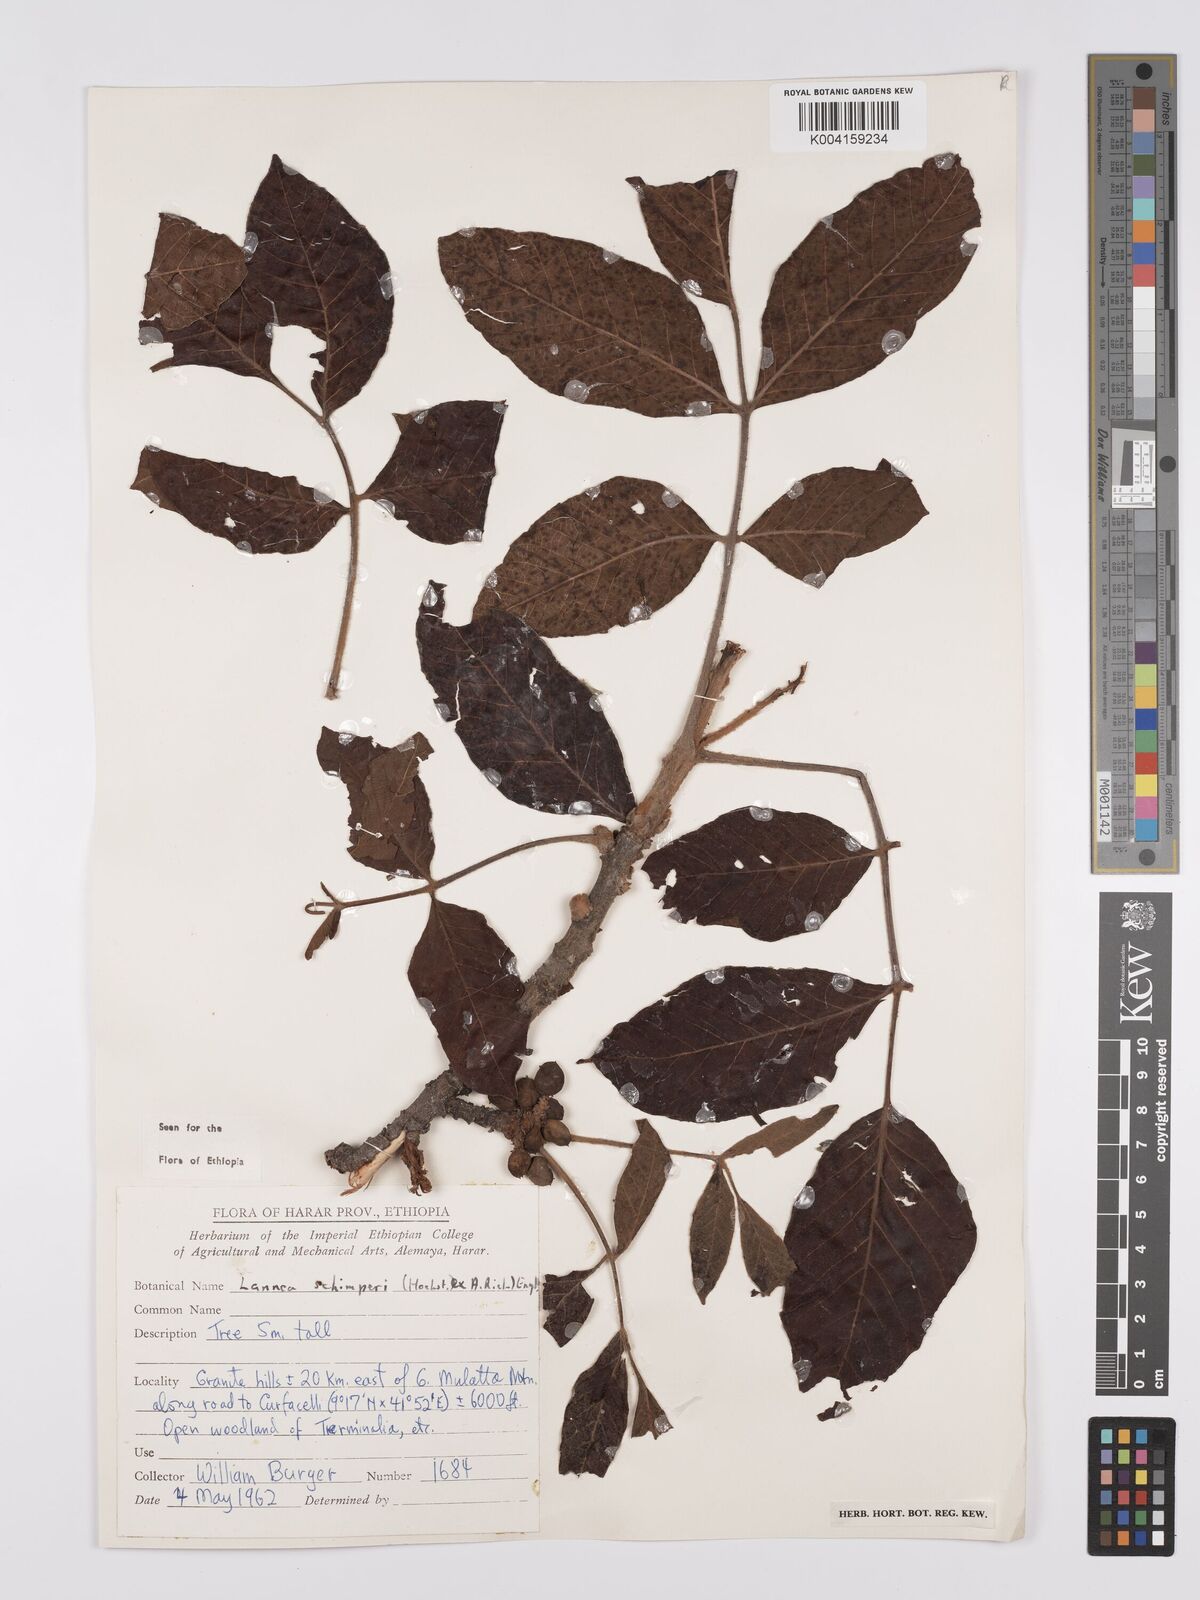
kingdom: Plantae
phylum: Tracheophyta
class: Magnoliopsida
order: Sapindales
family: Anacardiaceae
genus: Lannea
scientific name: Lannea schimperi
